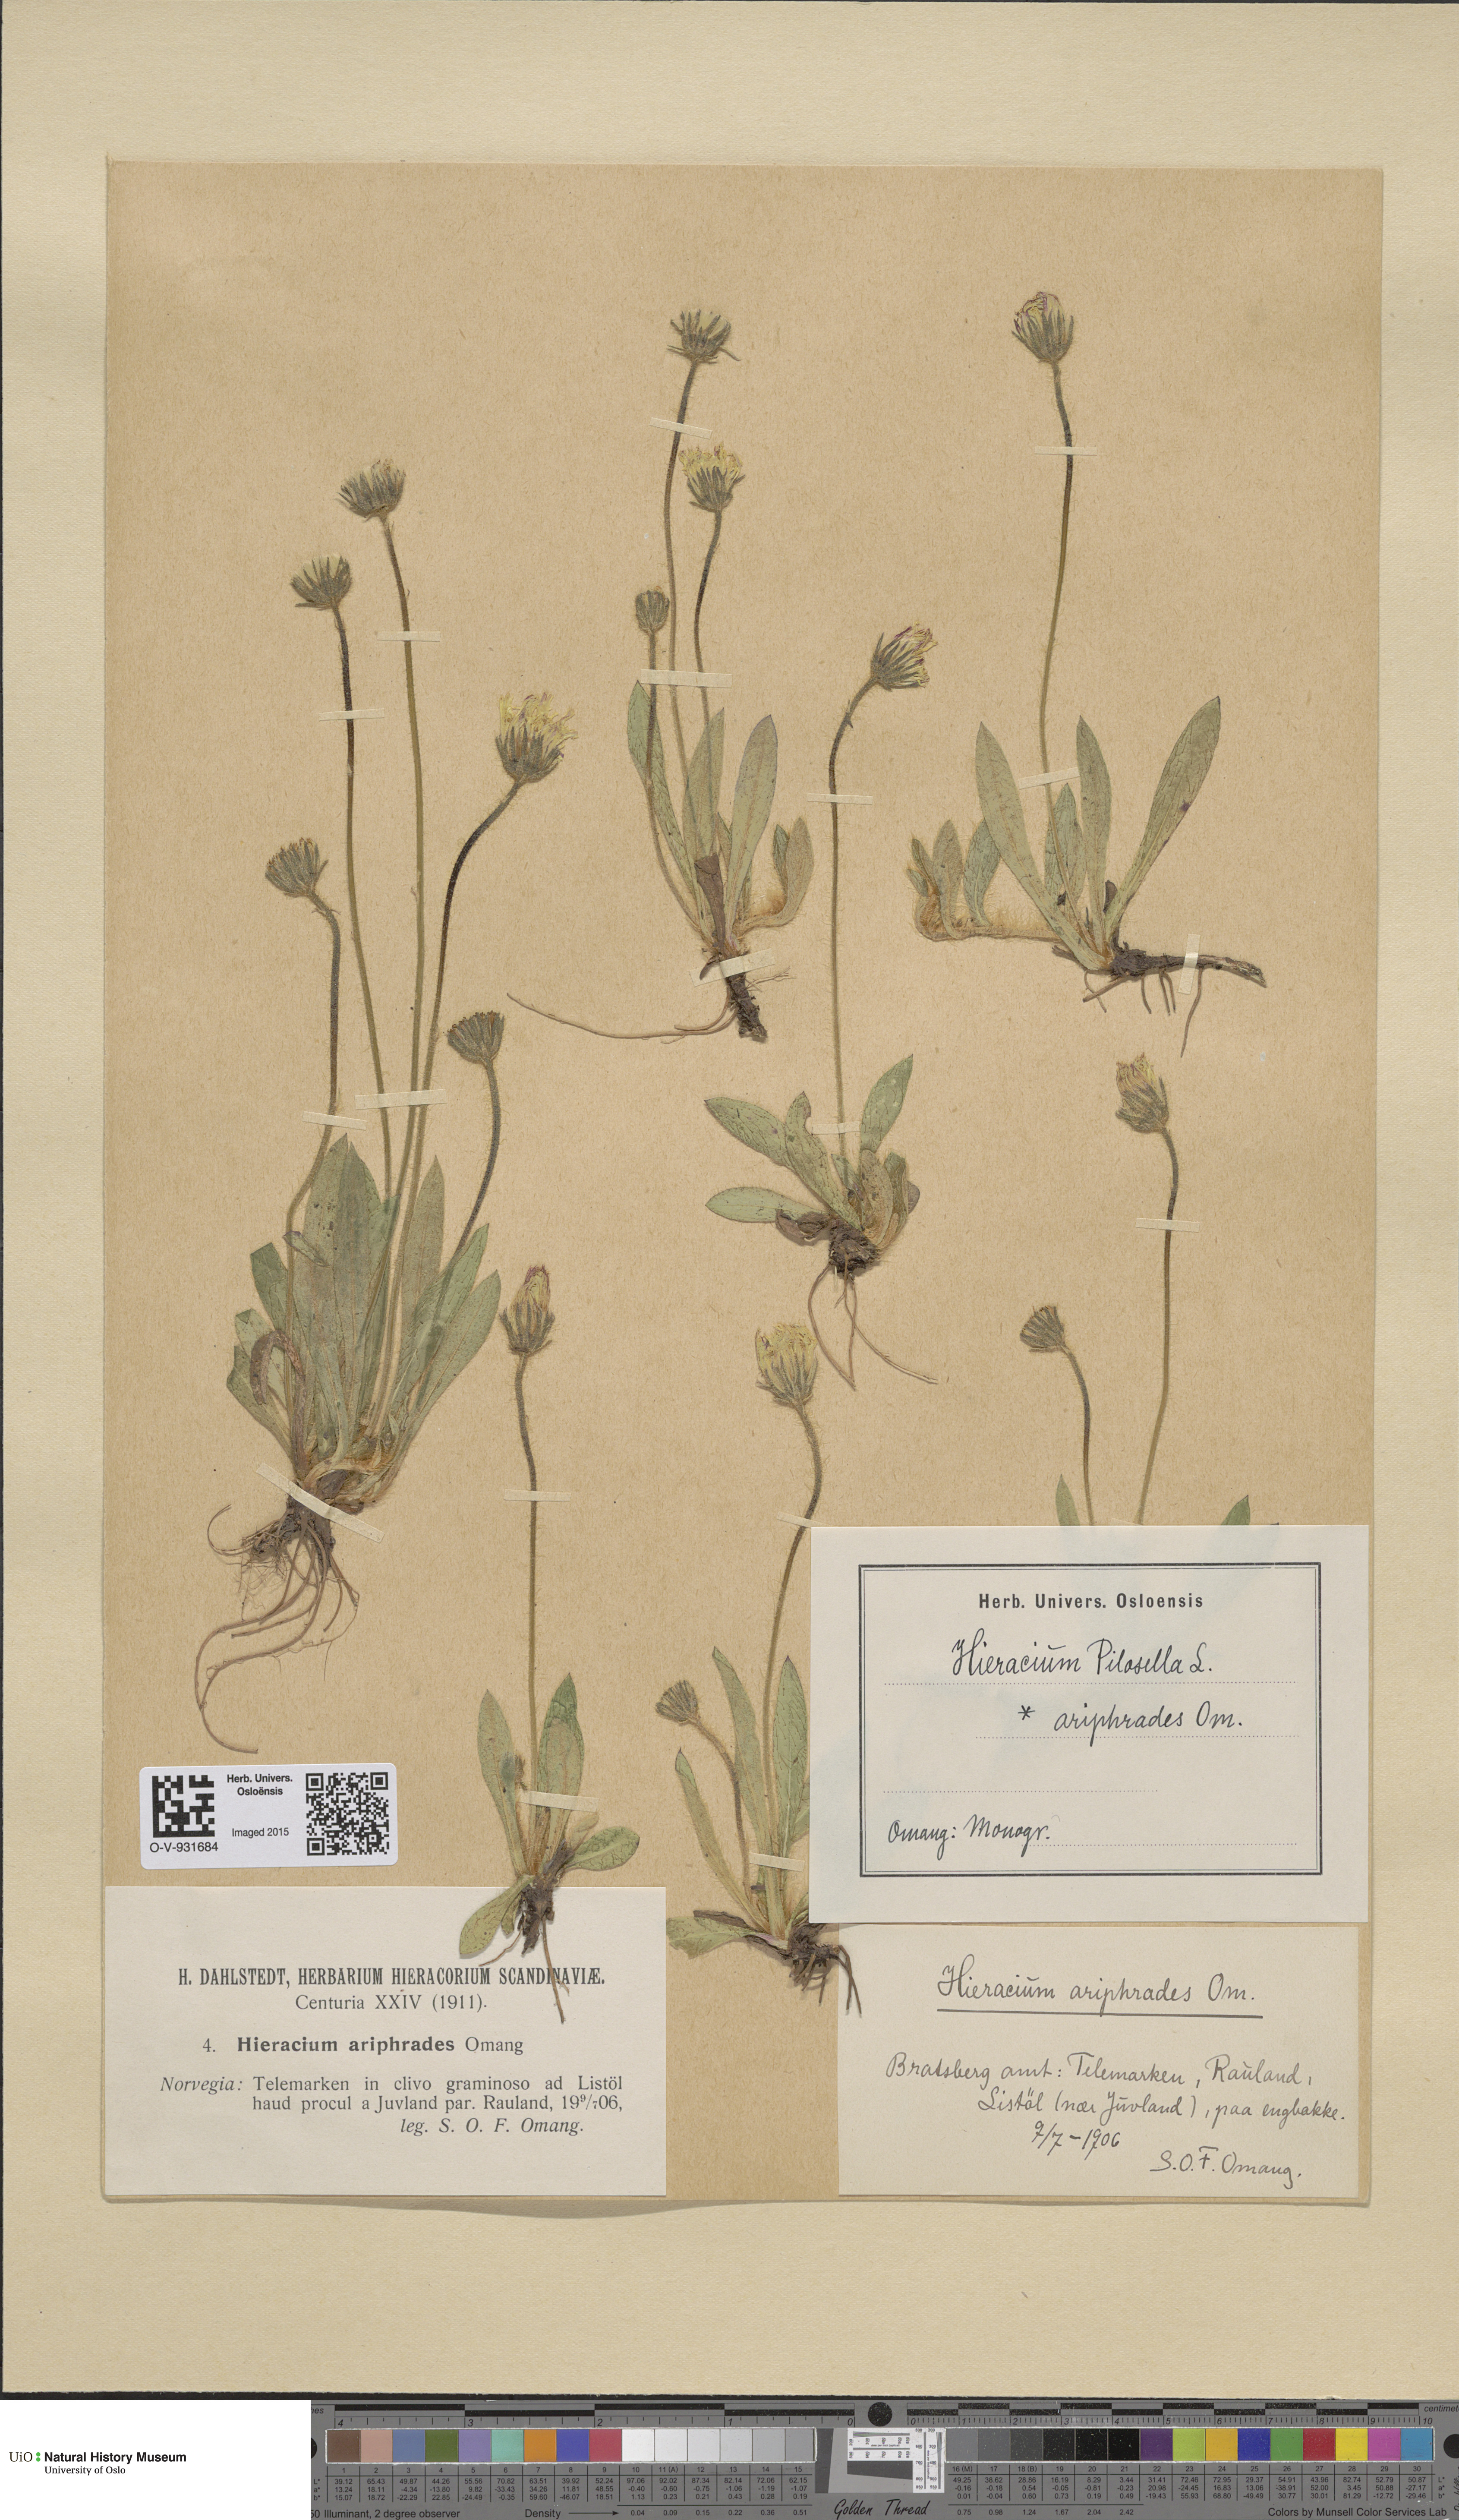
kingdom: Plantae
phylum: Tracheophyta
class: Magnoliopsida
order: Asterales
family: Asteraceae
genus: Pilosella
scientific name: Pilosella officinarum
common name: Mouse-ear hawkweed
